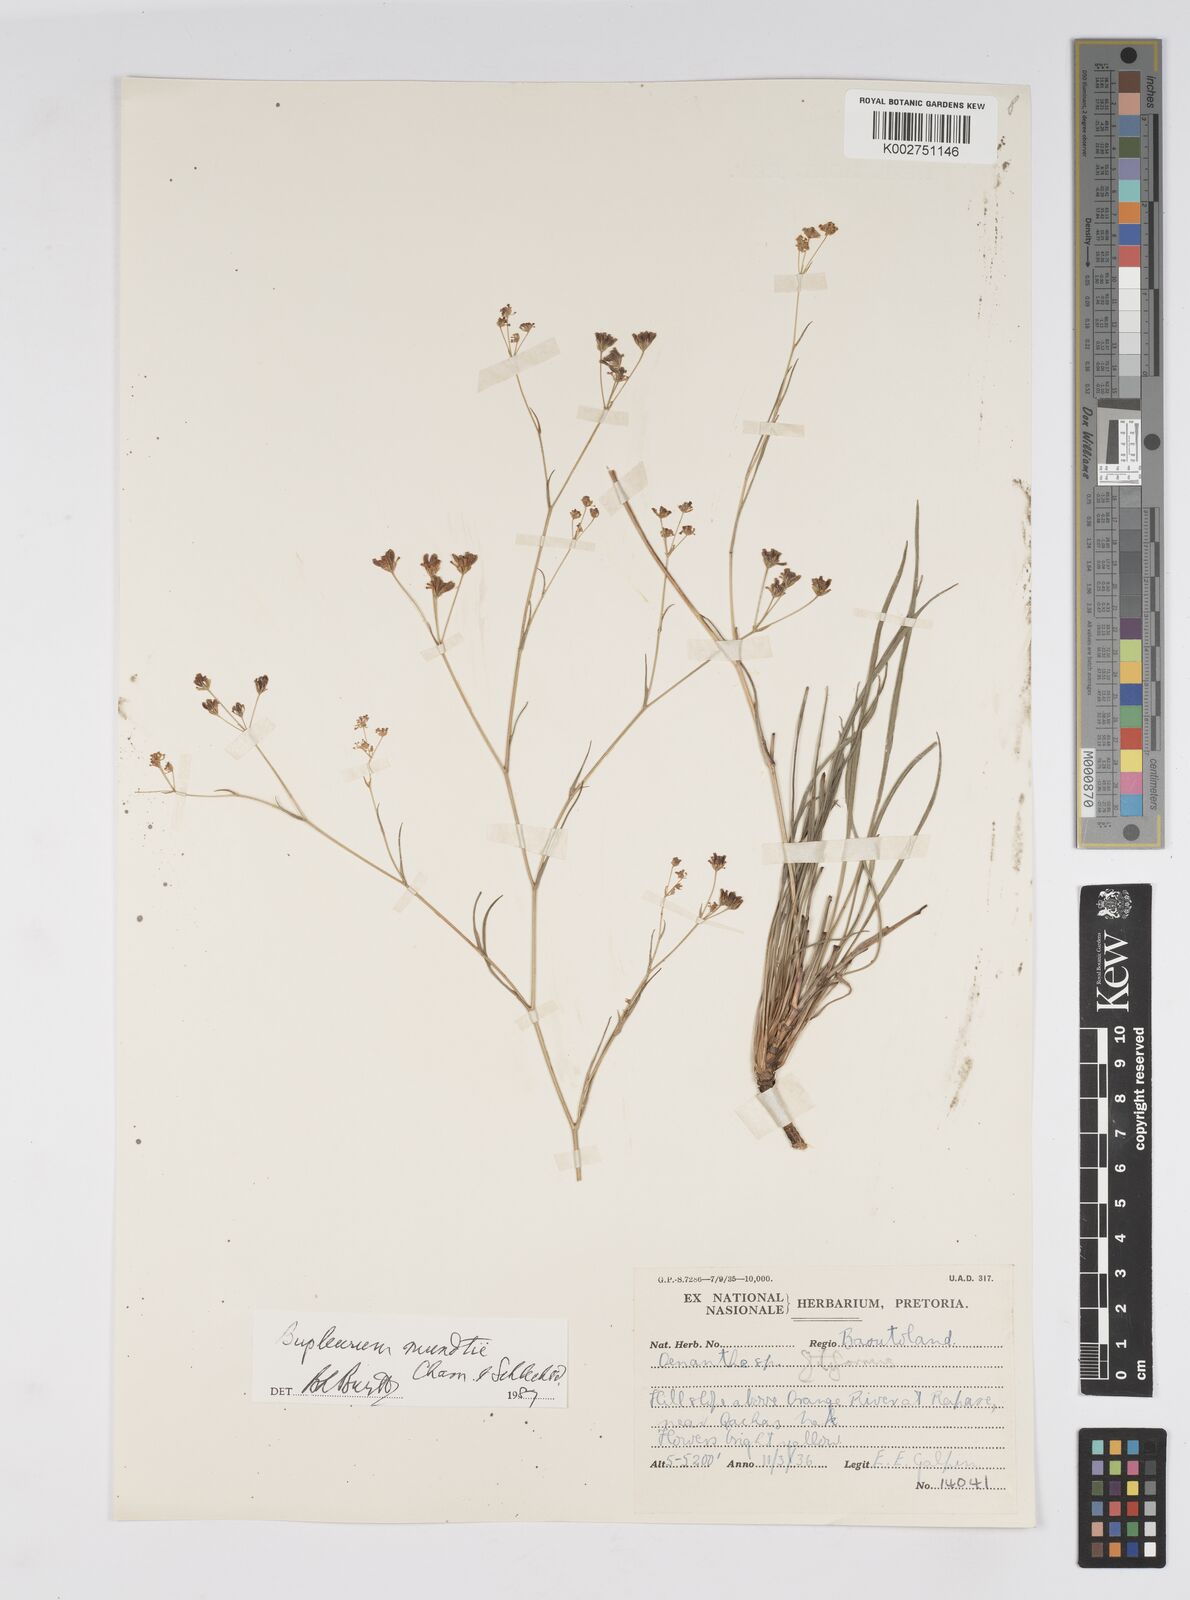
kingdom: Plantae
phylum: Tracheophyta
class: Magnoliopsida
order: Apiales
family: Apiaceae
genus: Bupleurum
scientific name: Bupleurum mundii
